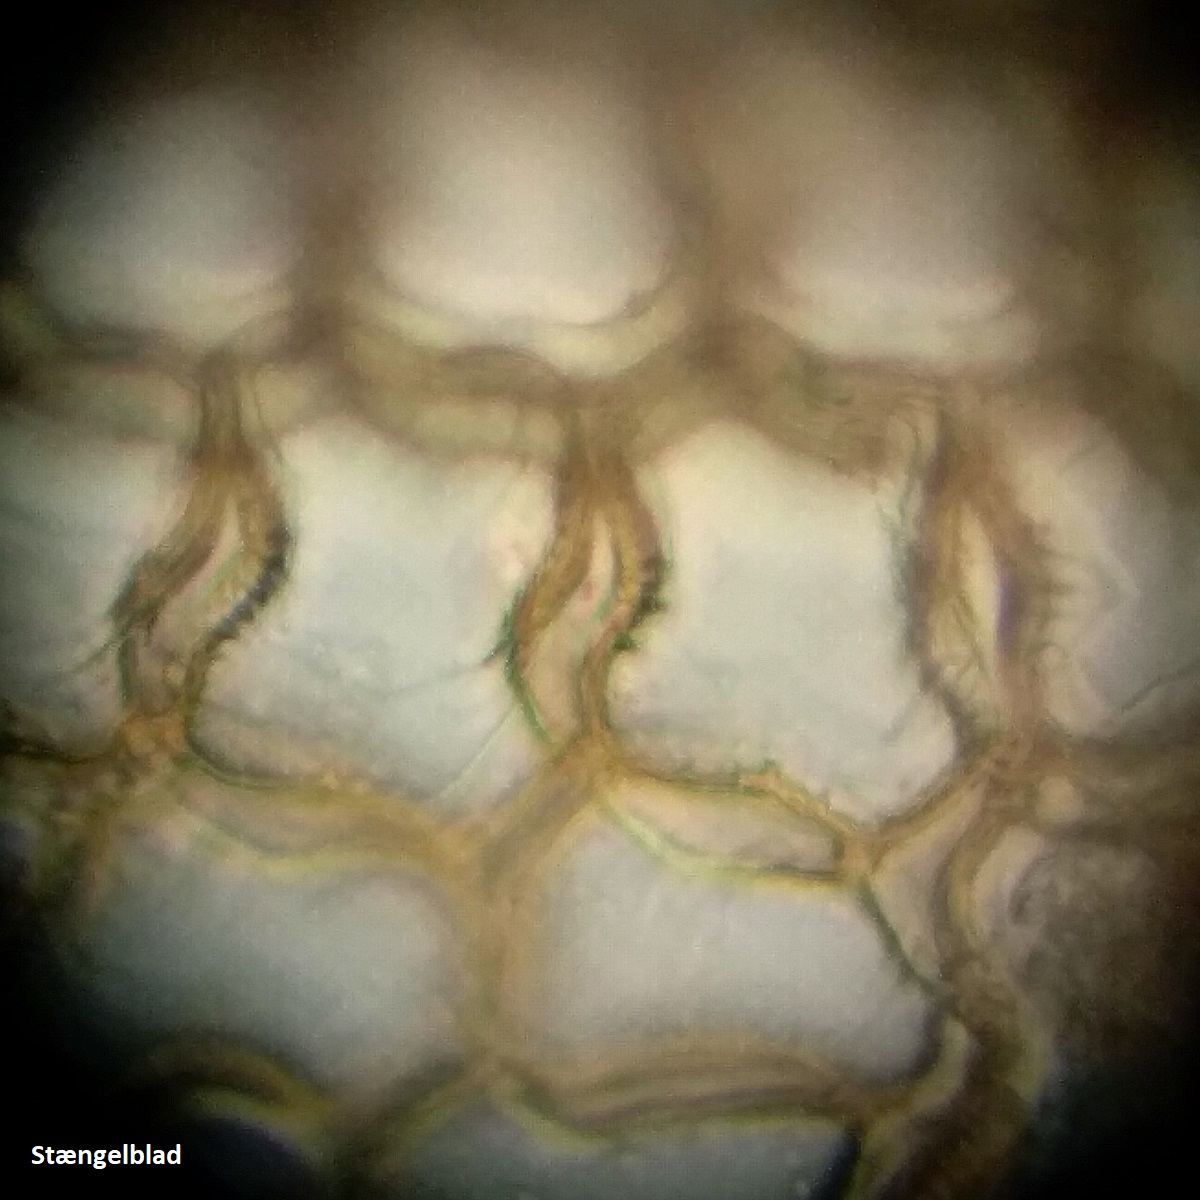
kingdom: Plantae
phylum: Bryophyta
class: Sphagnopsida
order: Sphagnales
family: Sphagnaceae
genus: Sphagnum
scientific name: Sphagnum austinii
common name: Austins tørvemos
